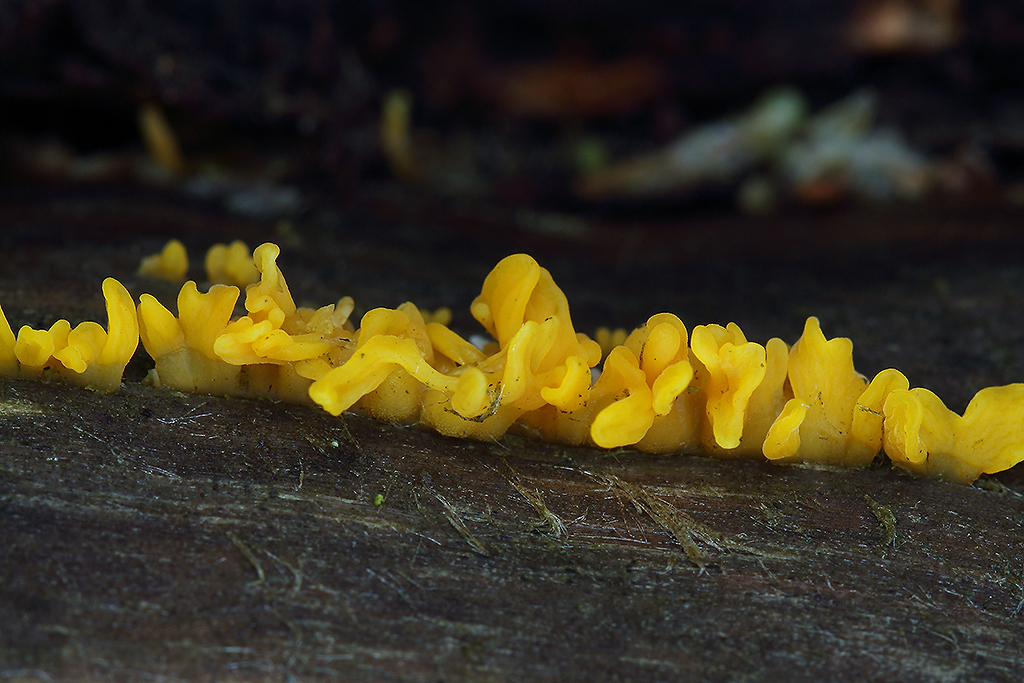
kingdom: Fungi
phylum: Basidiomycota
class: Dacrymycetes
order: Dacrymycetales
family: Dacrymycetaceae
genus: Calocera
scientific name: Calocera furcata
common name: fyrre-guldgaffel
